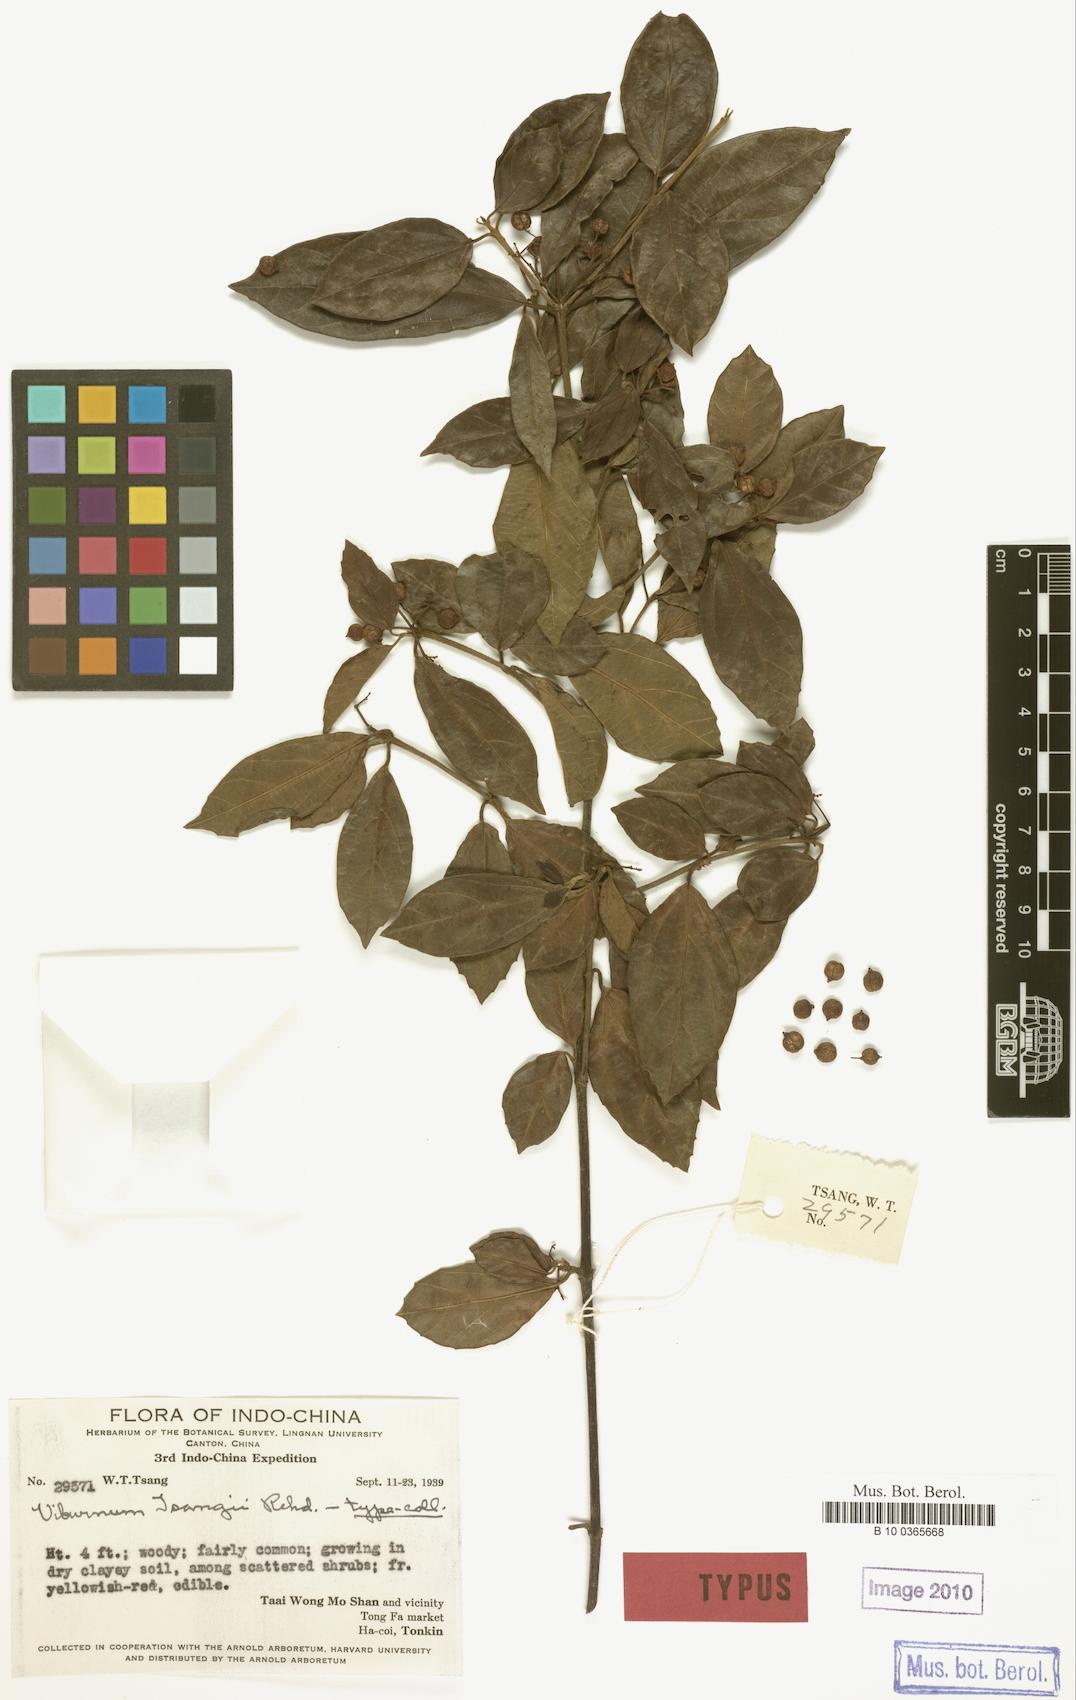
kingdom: Plantae
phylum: Tracheophyta
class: Magnoliopsida
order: Dipsacales
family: Viburnaceae
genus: Viburnum
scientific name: Viburnum hainanense
